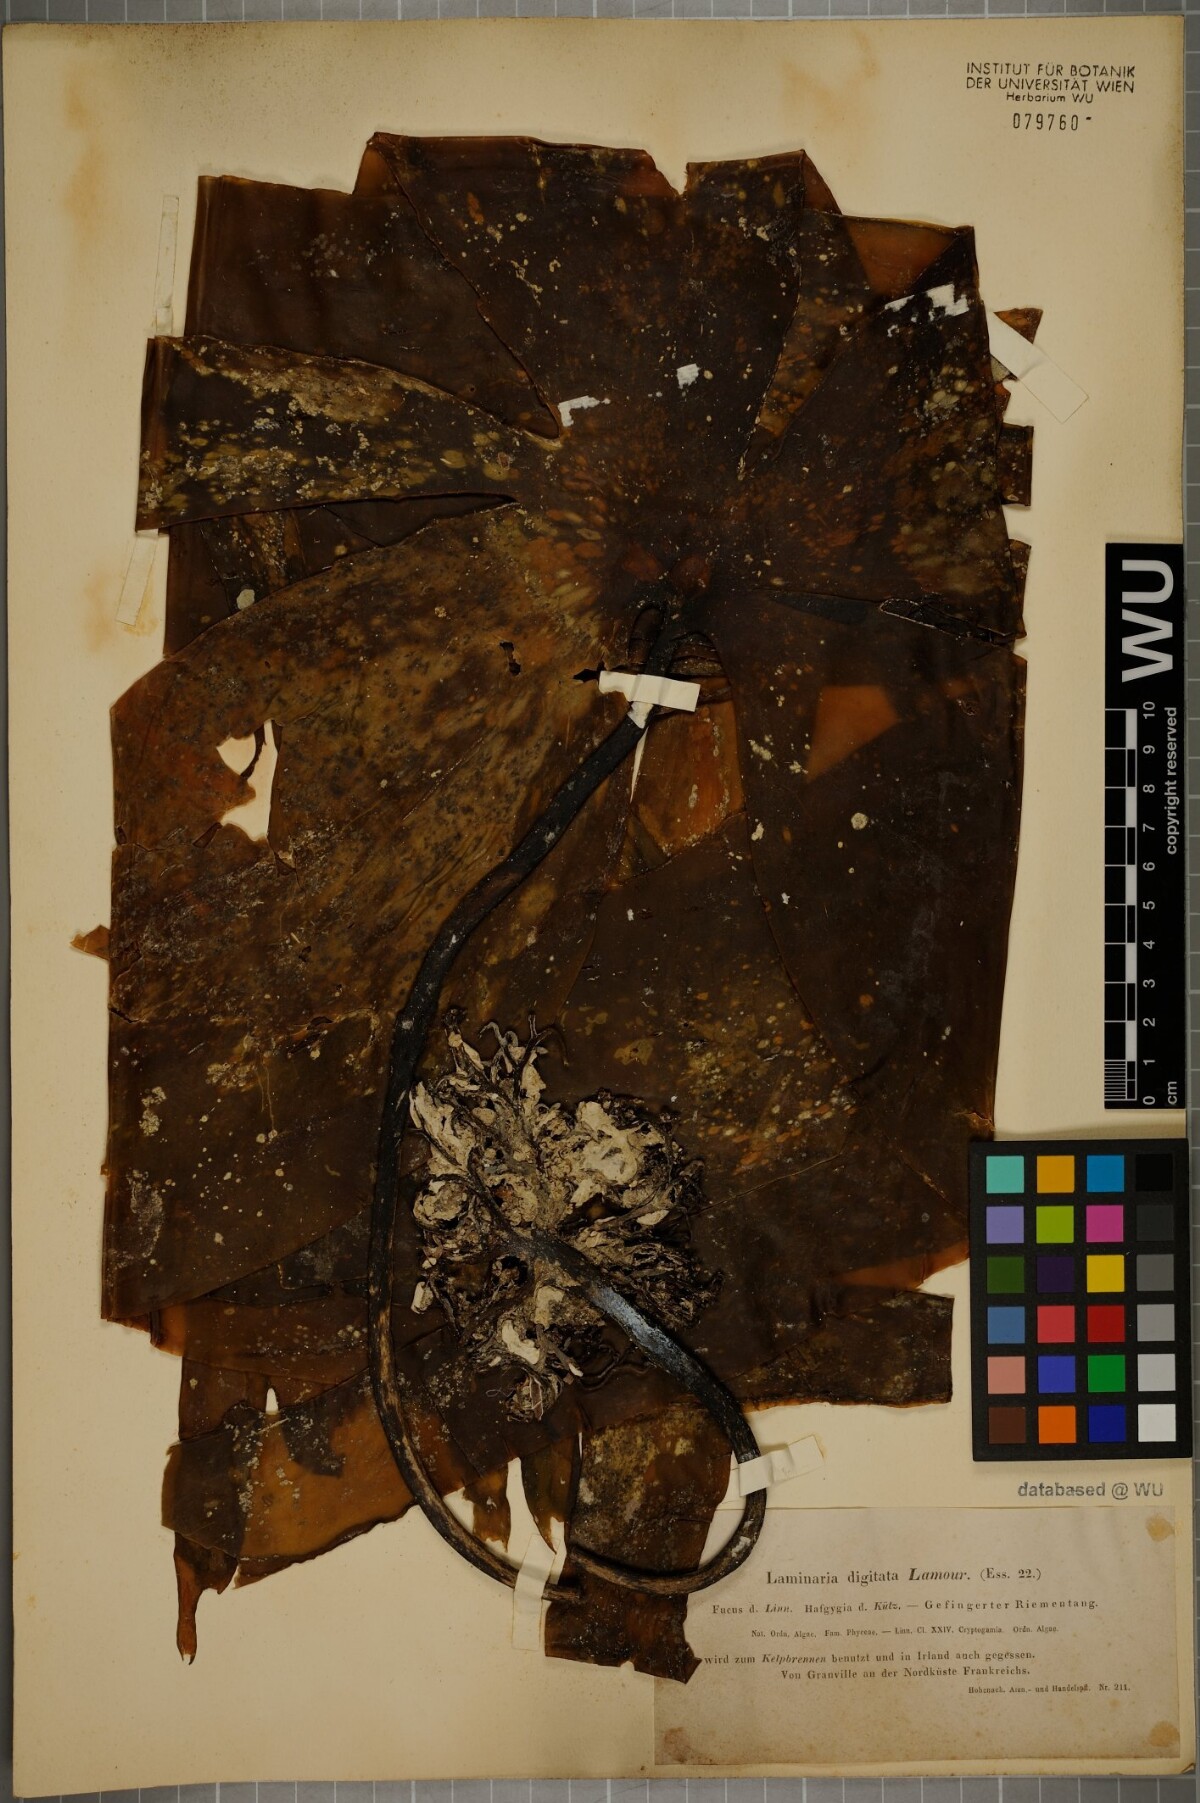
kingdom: Chromista
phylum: Ochrophyta
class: Phaeophyceae
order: Laminariales
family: Laminariaceae
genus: Laminaria
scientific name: Laminaria digitata
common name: Oarweed
